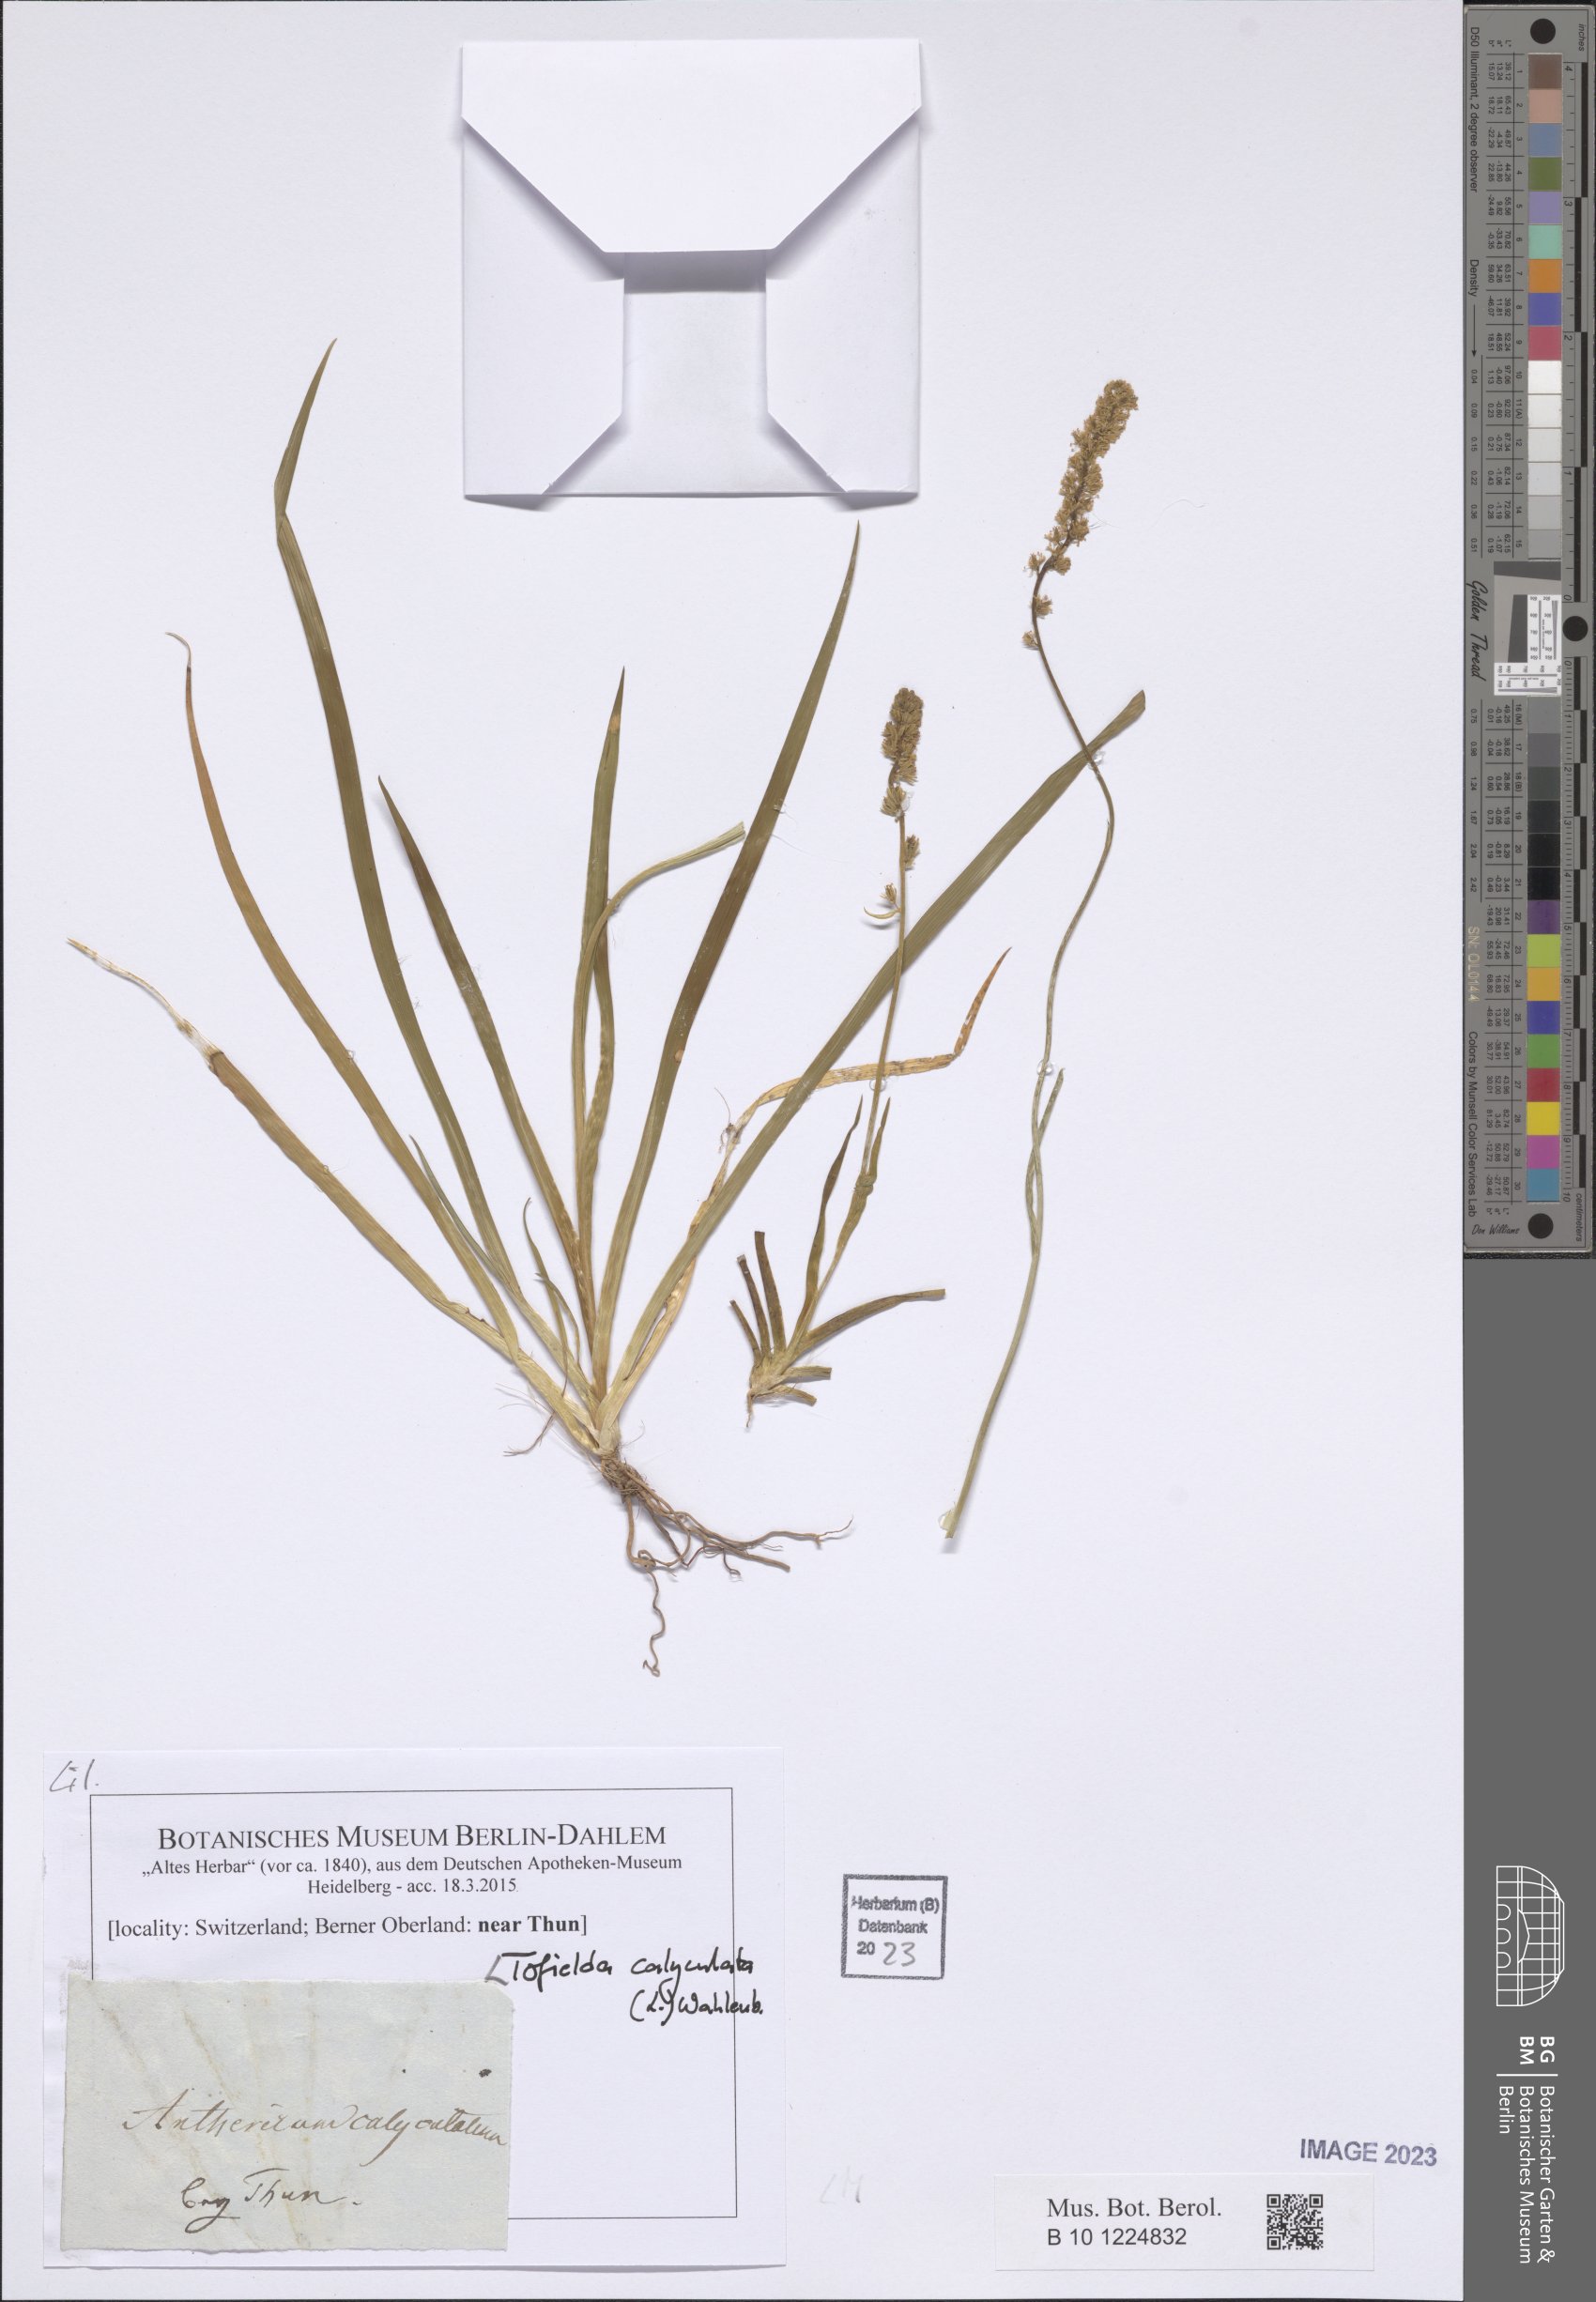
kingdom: Plantae
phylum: Tracheophyta
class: Liliopsida
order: Alismatales
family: Tofieldiaceae
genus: Tofieldia
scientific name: Tofieldia calyculata
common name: German-asphodel
